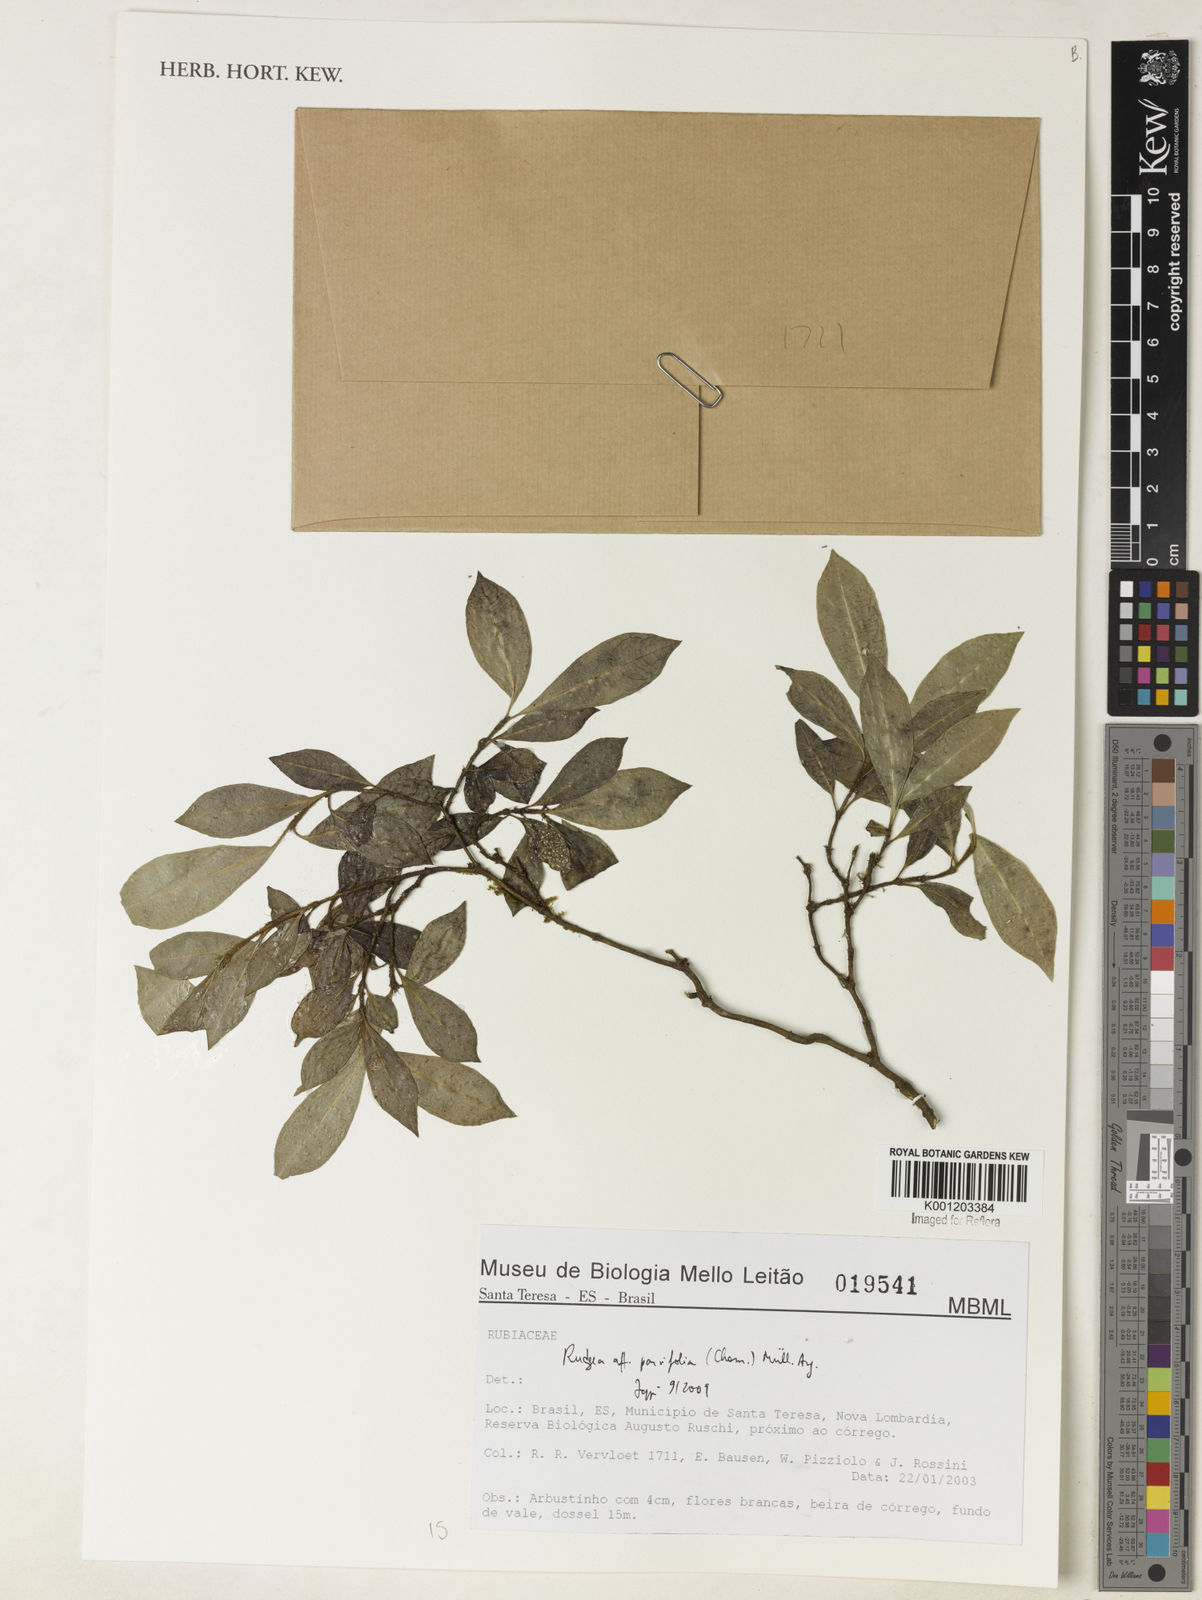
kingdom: Plantae
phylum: Tracheophyta
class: Magnoliopsida
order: Gentianales
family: Rubiaceae
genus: Rudgea
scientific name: Rudgea
